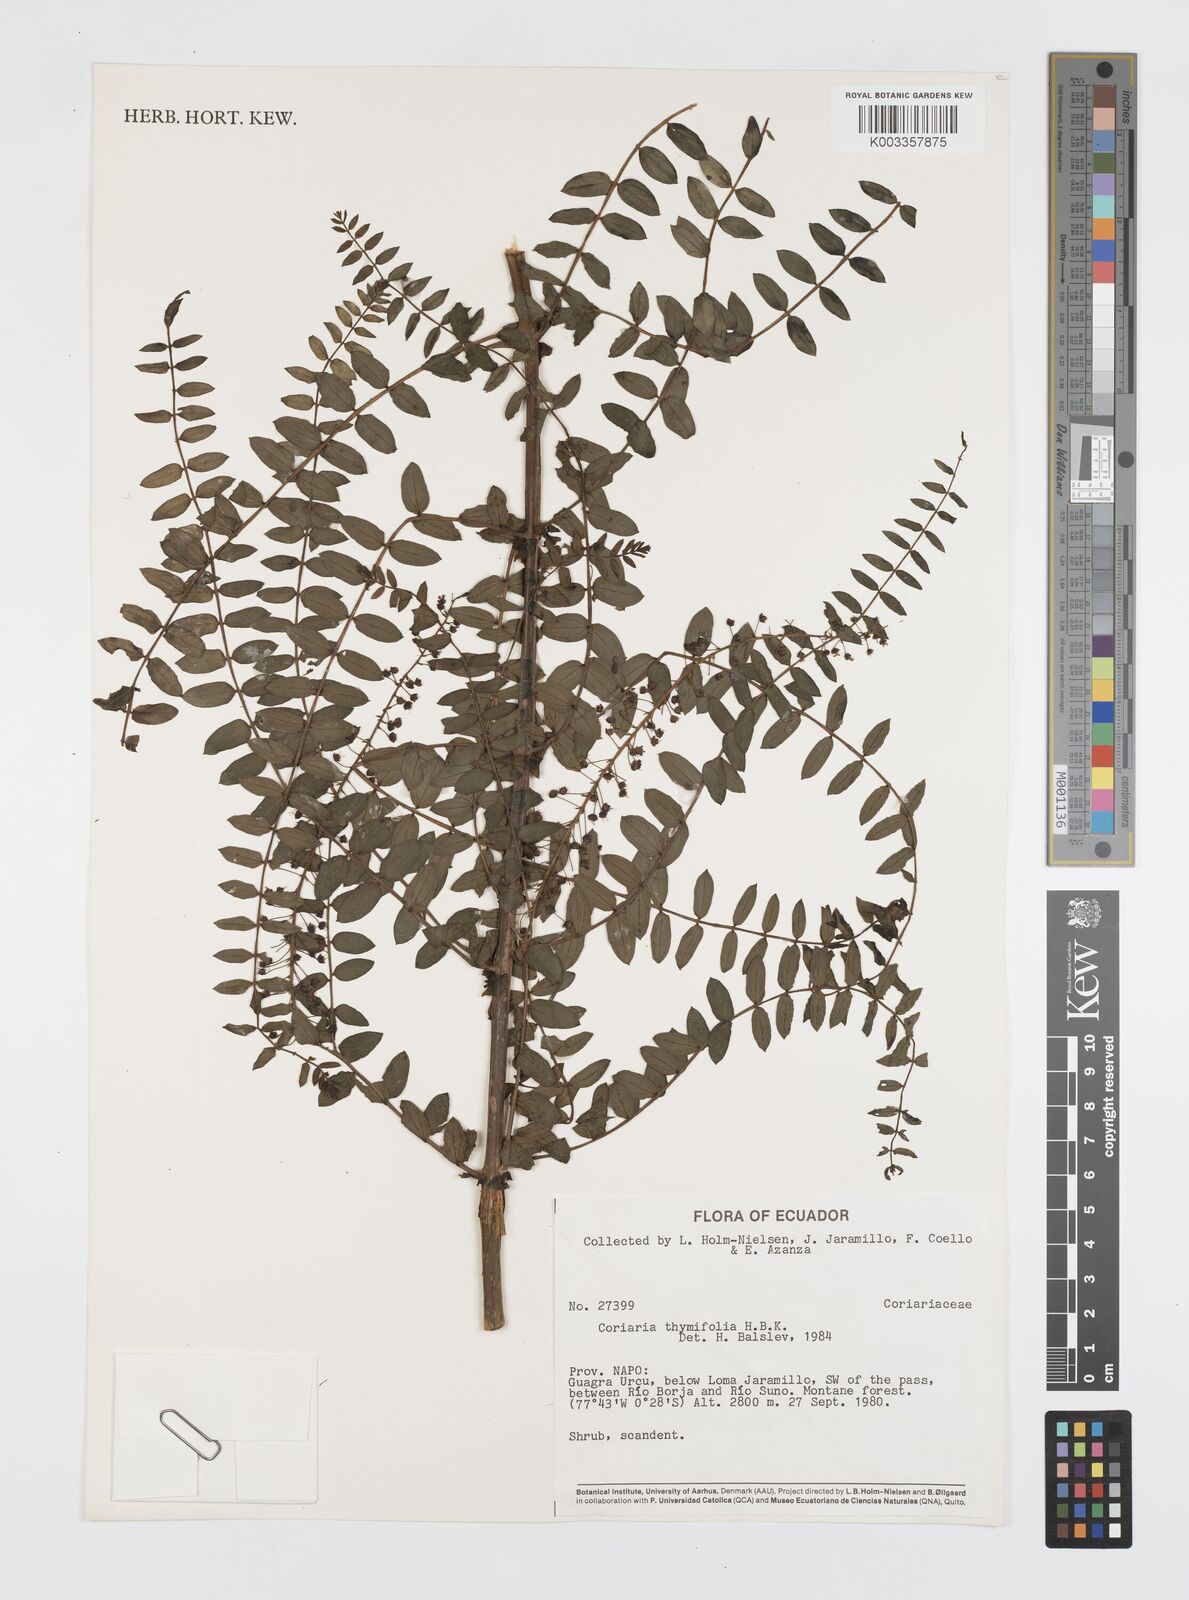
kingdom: Plantae
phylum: Tracheophyta
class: Magnoliopsida
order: Cucurbitales
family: Coriariaceae
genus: Coriaria
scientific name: Coriaria microphylla
